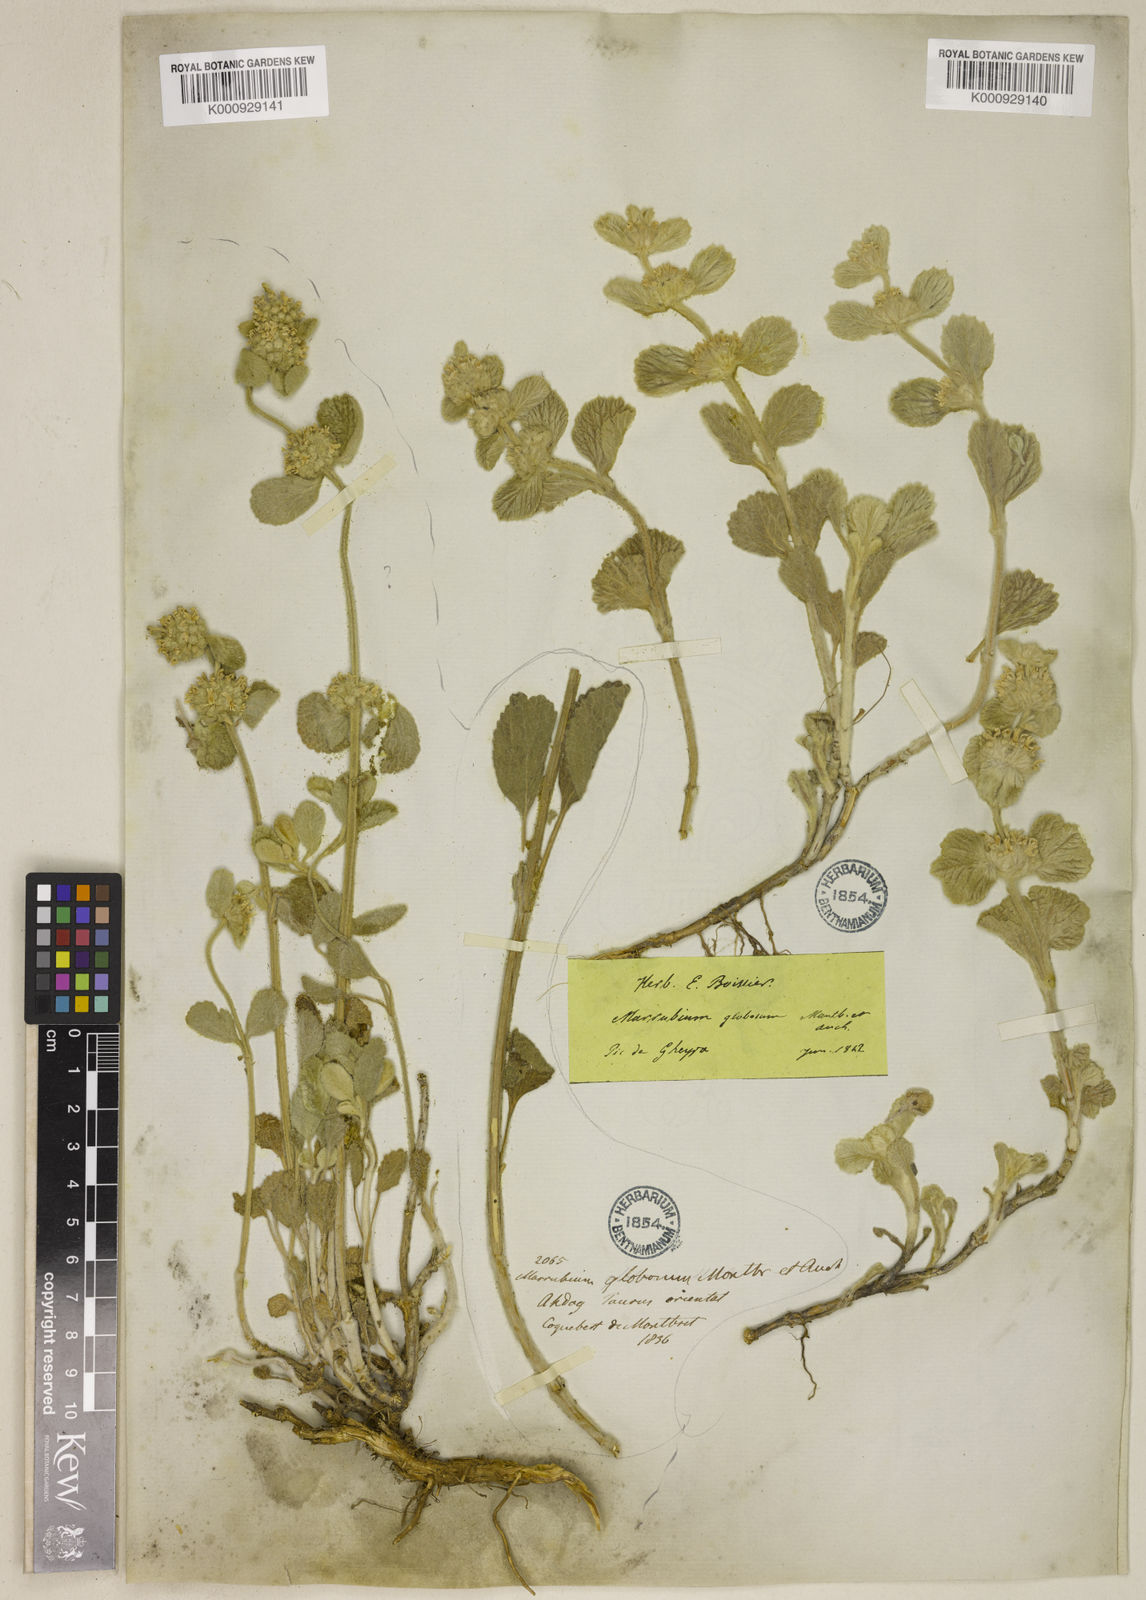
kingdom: Plantae
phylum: Tracheophyta
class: Magnoliopsida
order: Lamiales
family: Lamiaceae
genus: Marrubium
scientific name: Marrubium globosum
